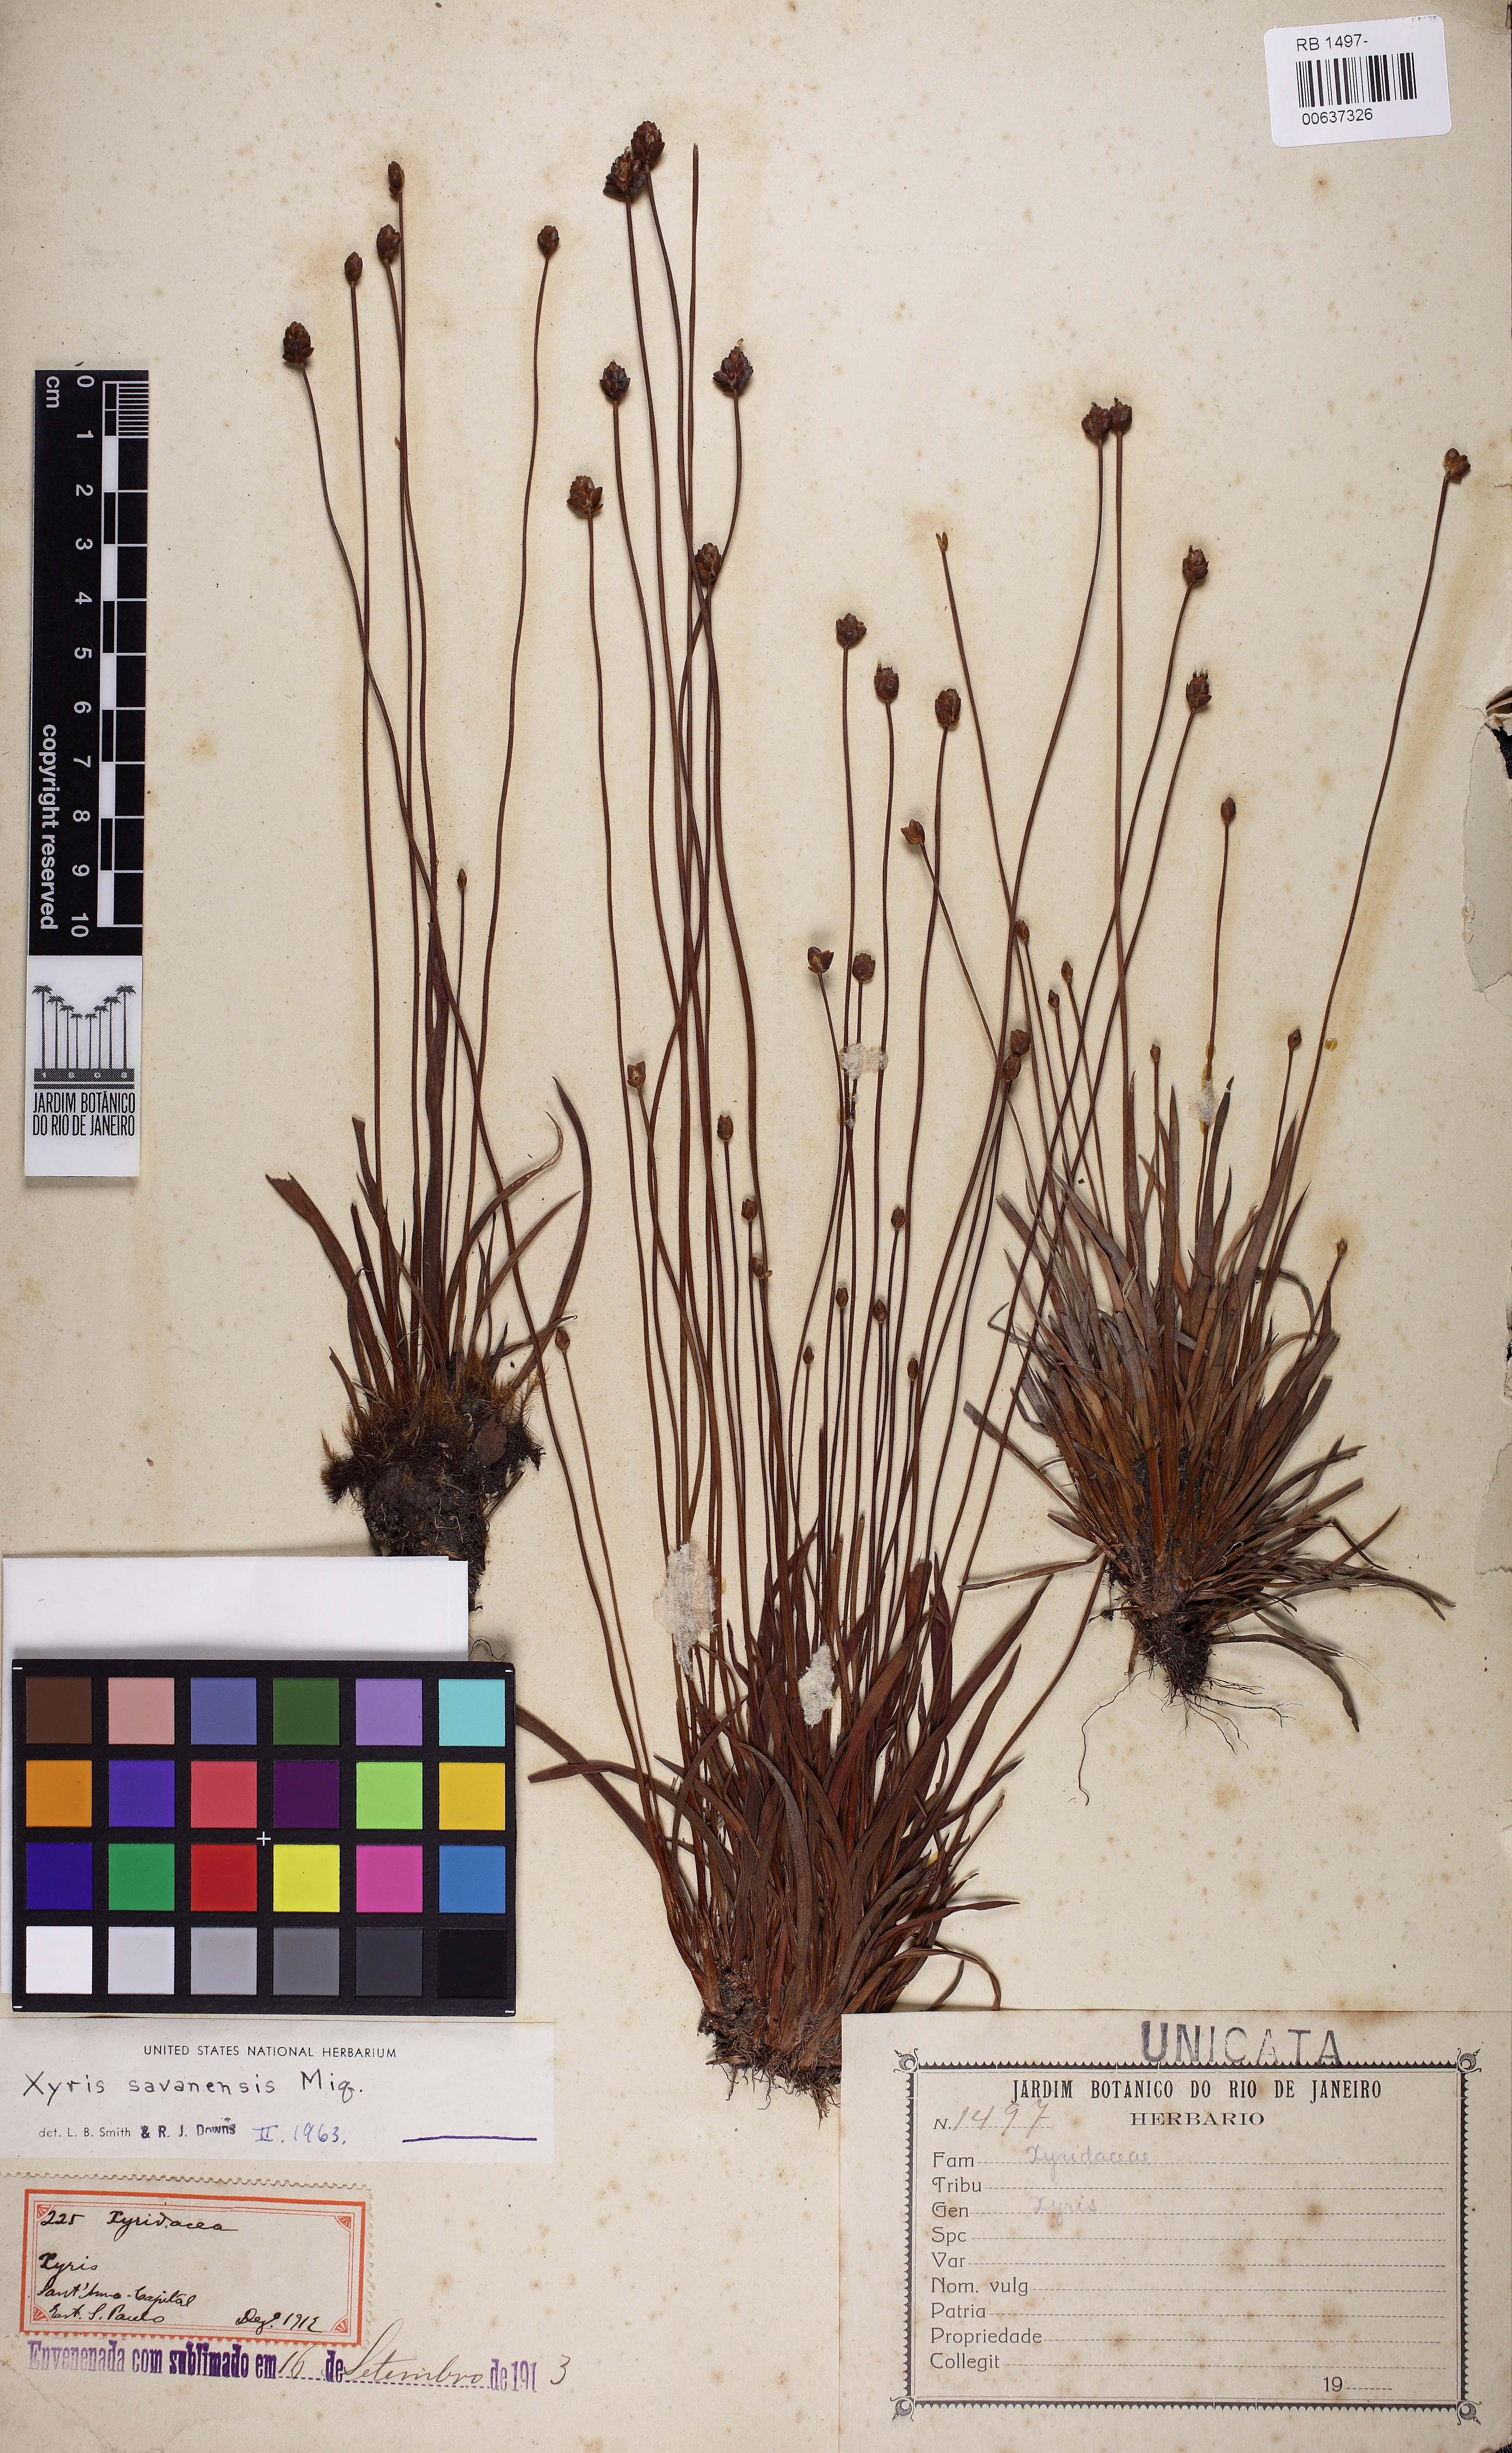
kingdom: Plantae
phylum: Tracheophyta
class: Liliopsida
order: Poales
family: Xyridaceae
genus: Xyris
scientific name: Xyris savanensis
